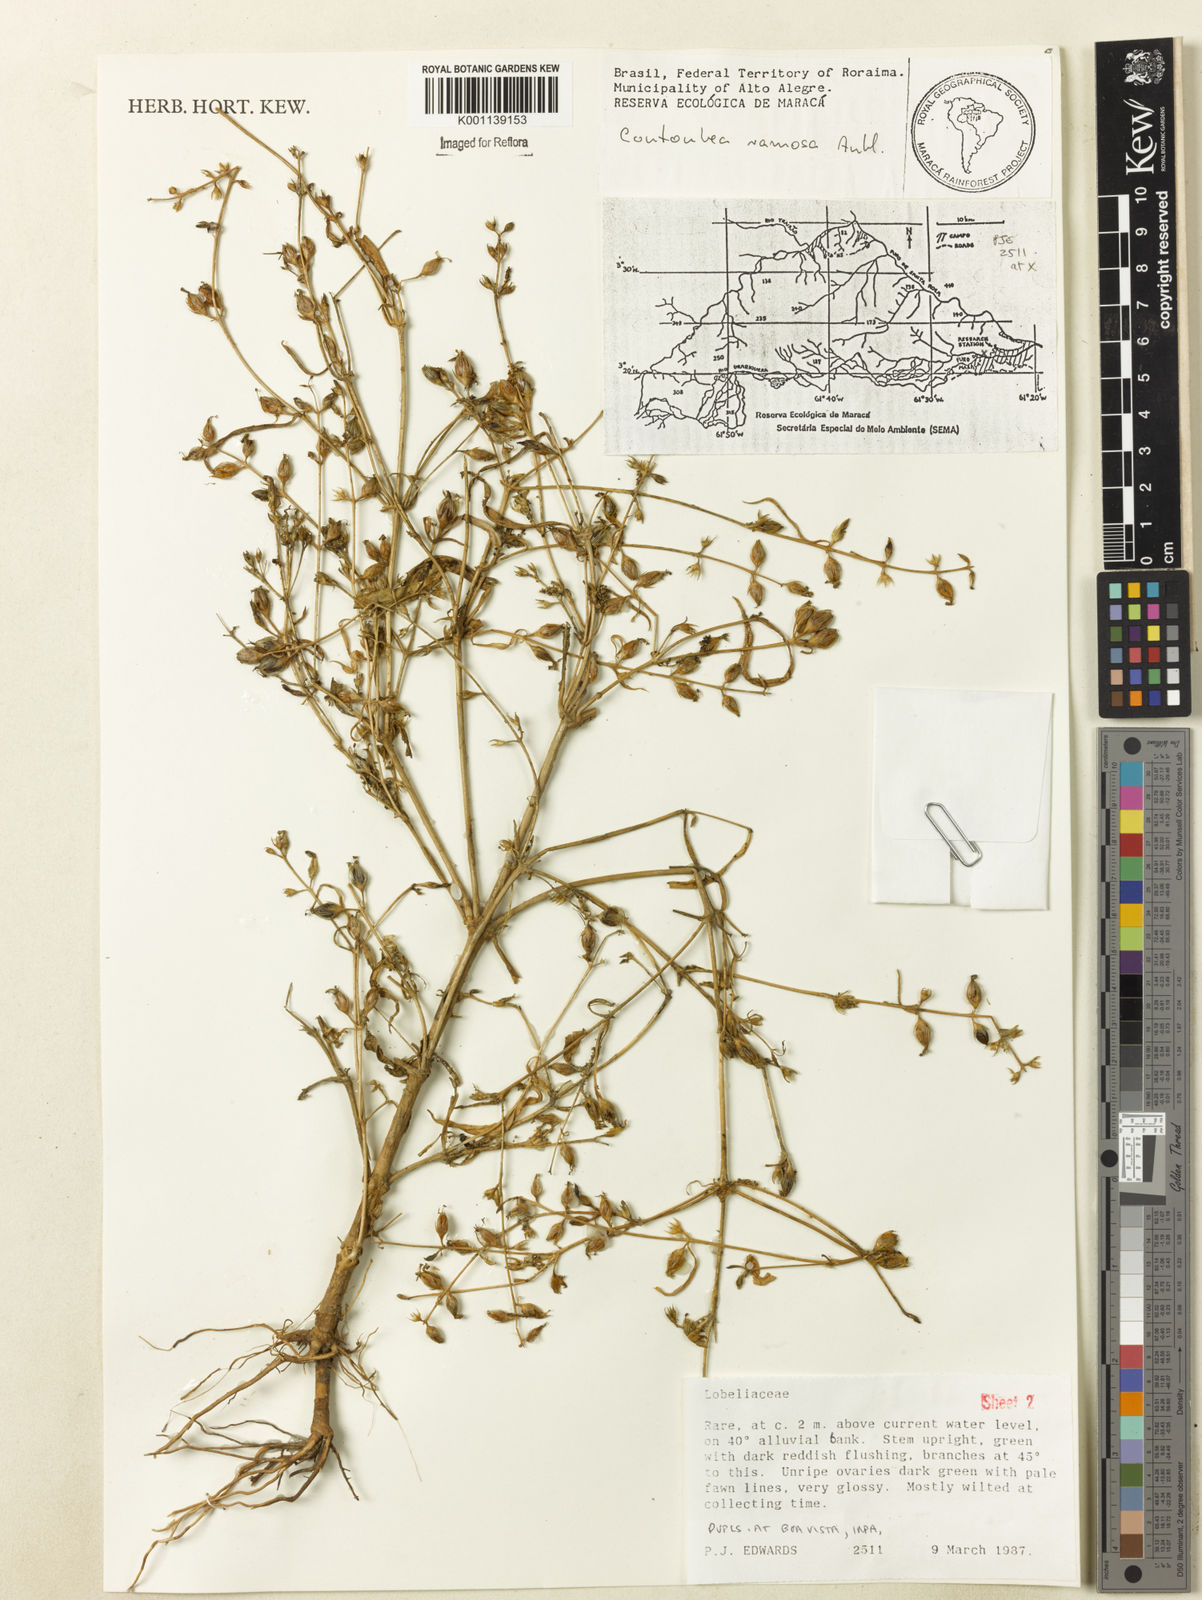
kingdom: Plantae
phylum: Tracheophyta
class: Magnoliopsida
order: Gentianales
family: Gentianaceae
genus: Coutoubea
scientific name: Coutoubea ramosa
